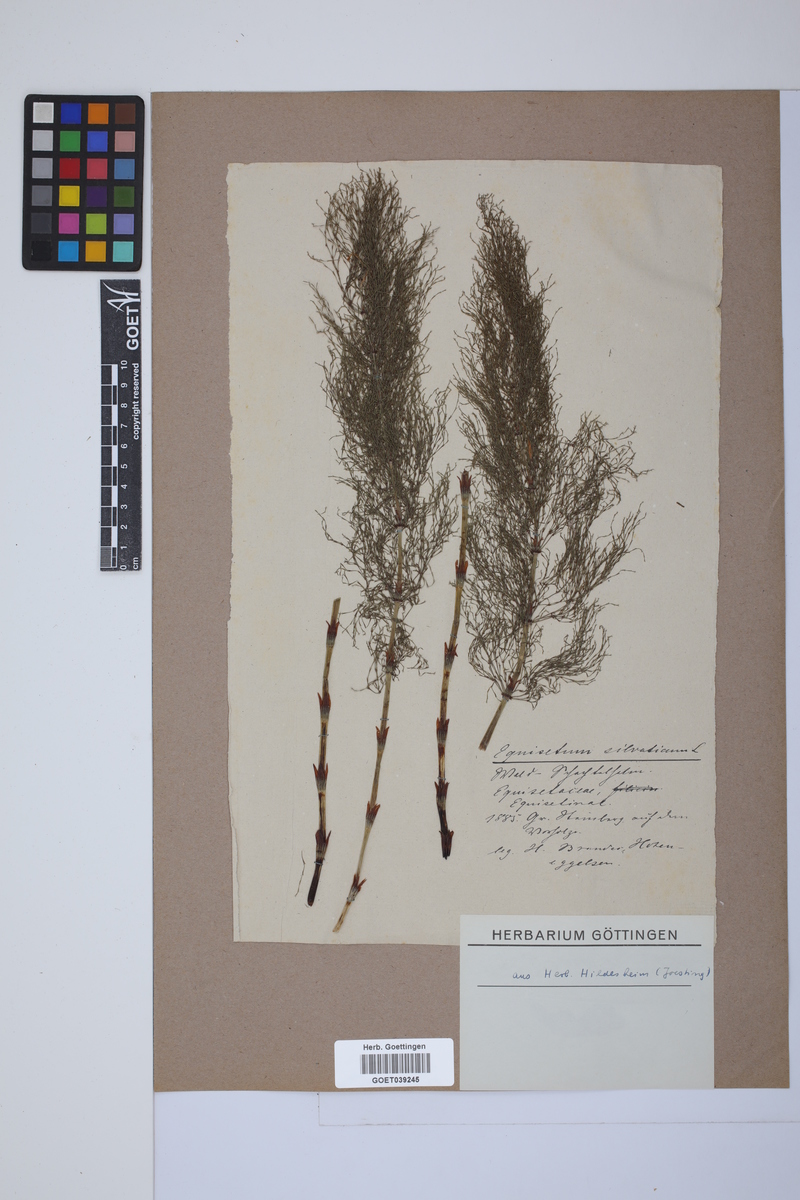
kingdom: Plantae
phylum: Tracheophyta
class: Polypodiopsida
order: Equisetales
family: Equisetaceae
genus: Equisetum
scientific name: Equisetum sylvaticum
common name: Wood horsetail
